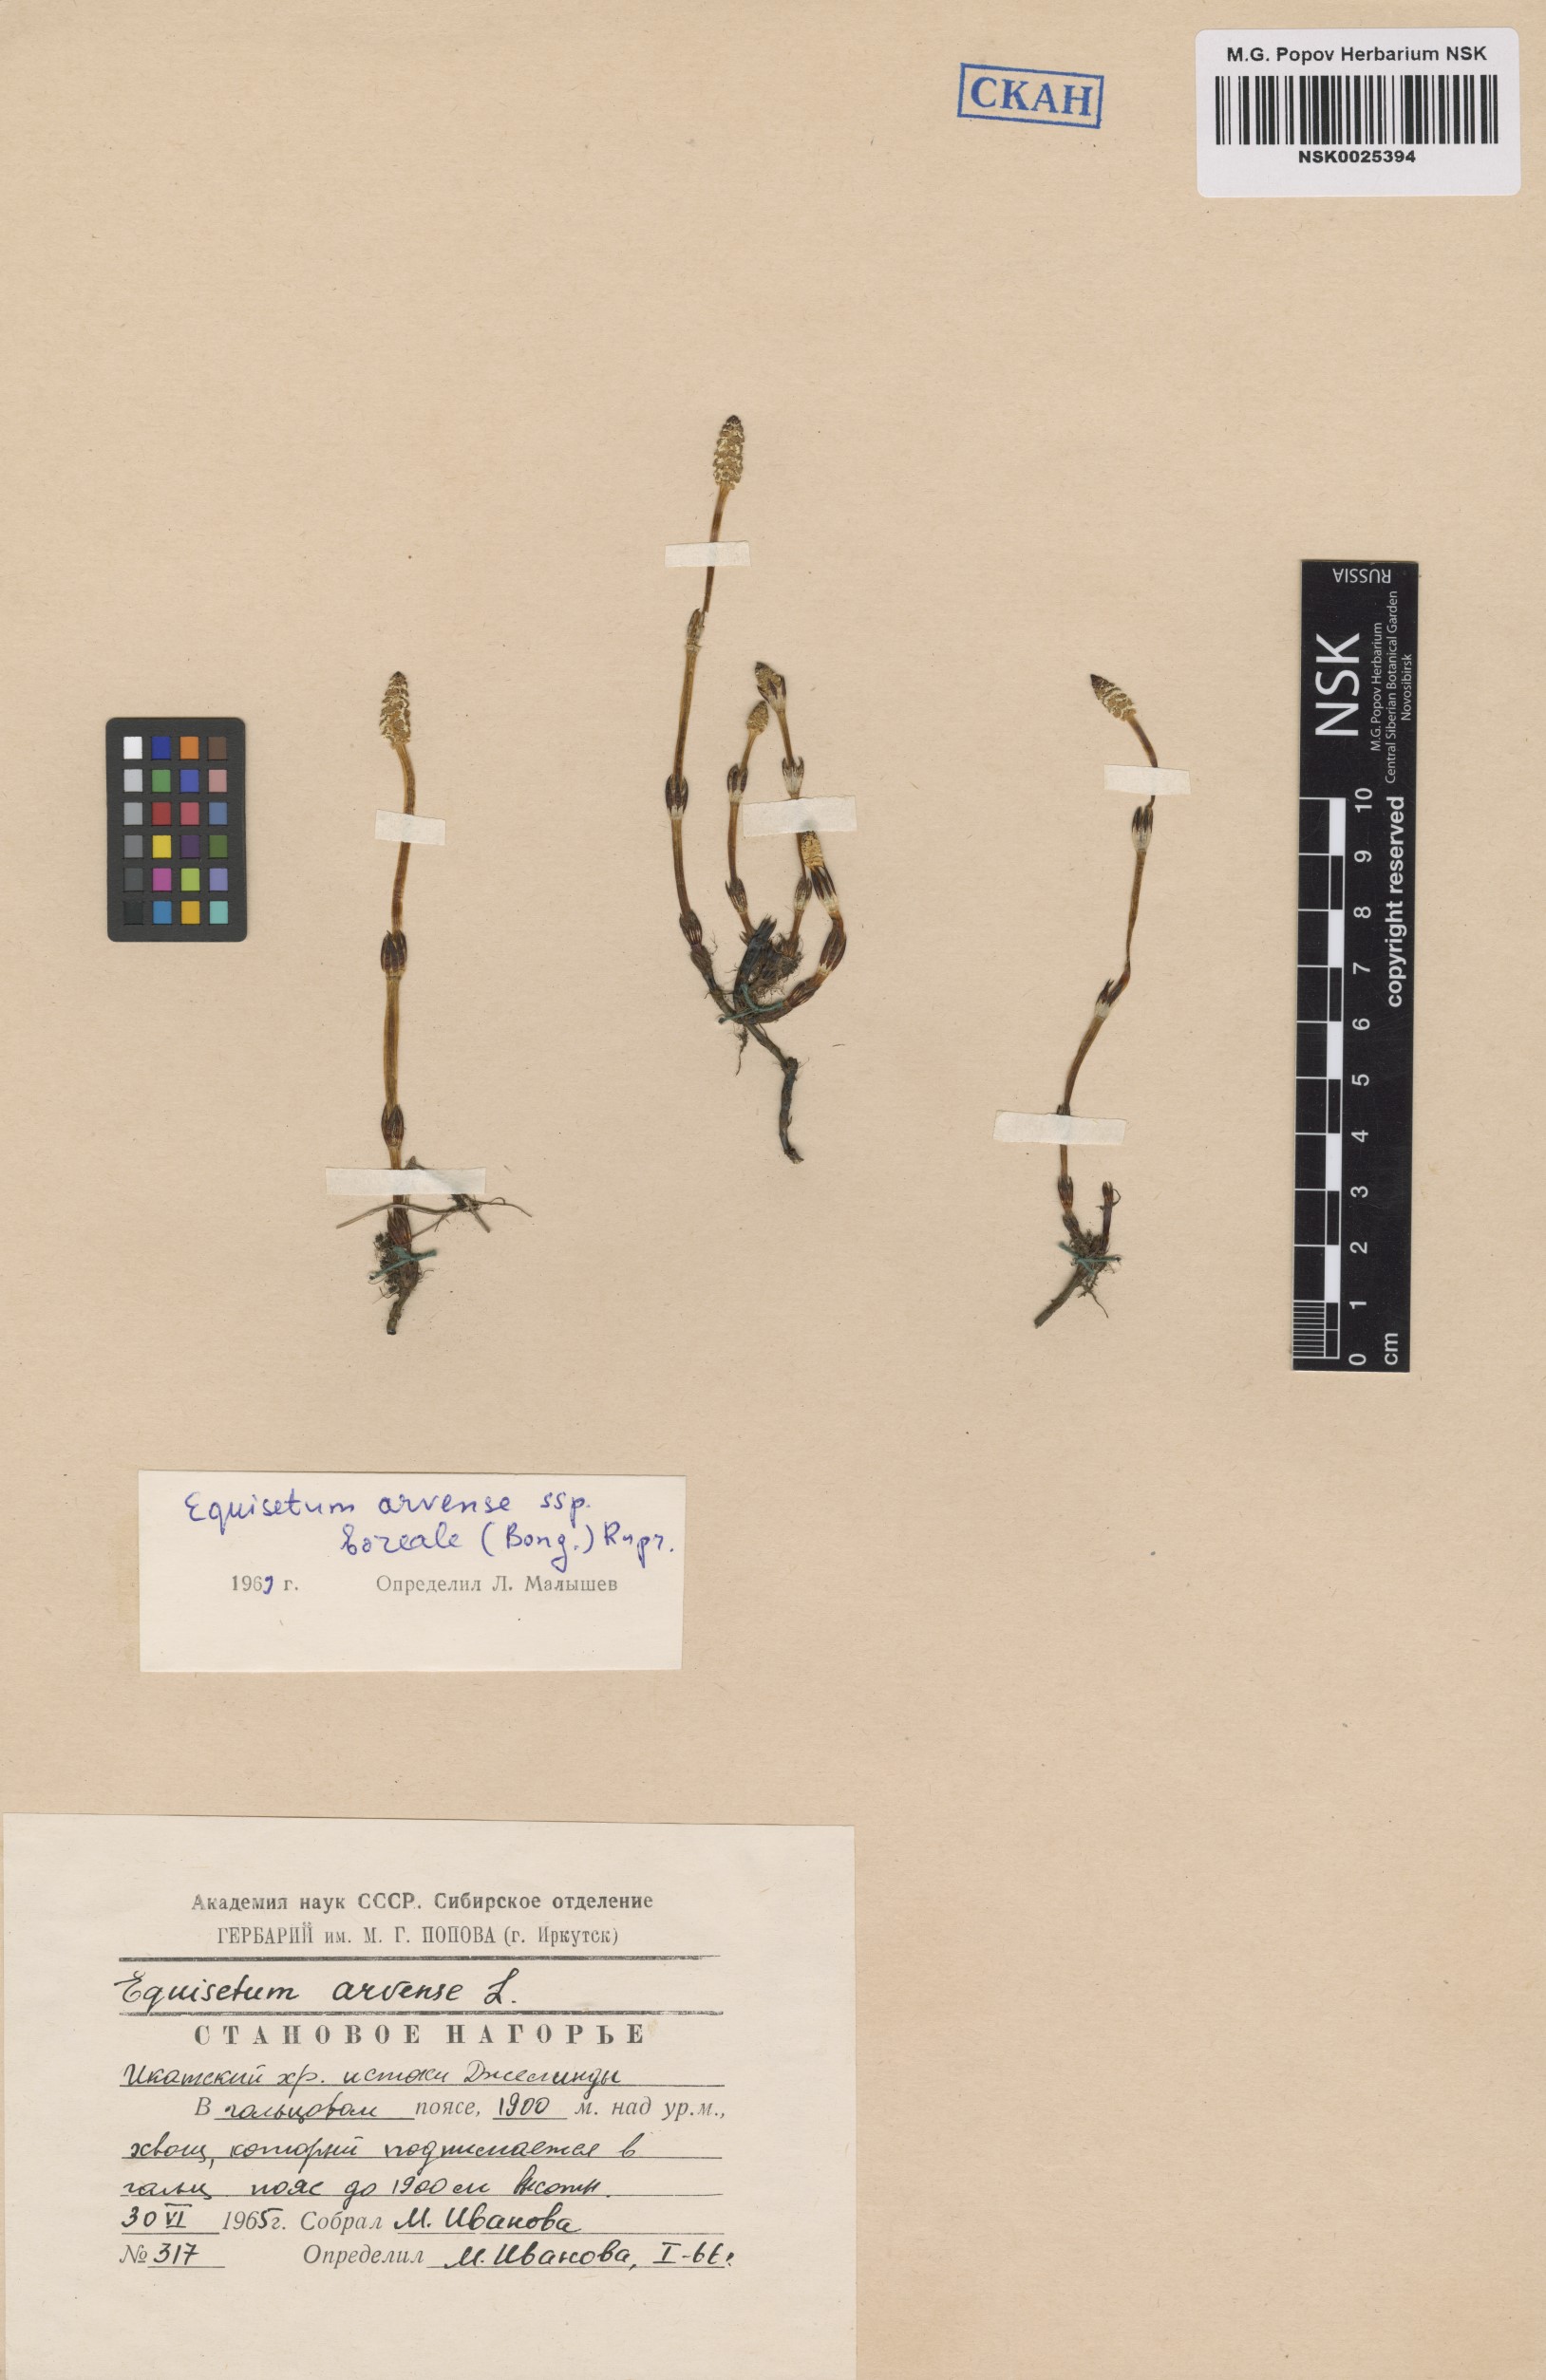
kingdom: Plantae
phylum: Tracheophyta
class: Polypodiopsida
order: Equisetales
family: Equisetaceae
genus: Equisetum
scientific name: Equisetum arvense
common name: Field horsetail
